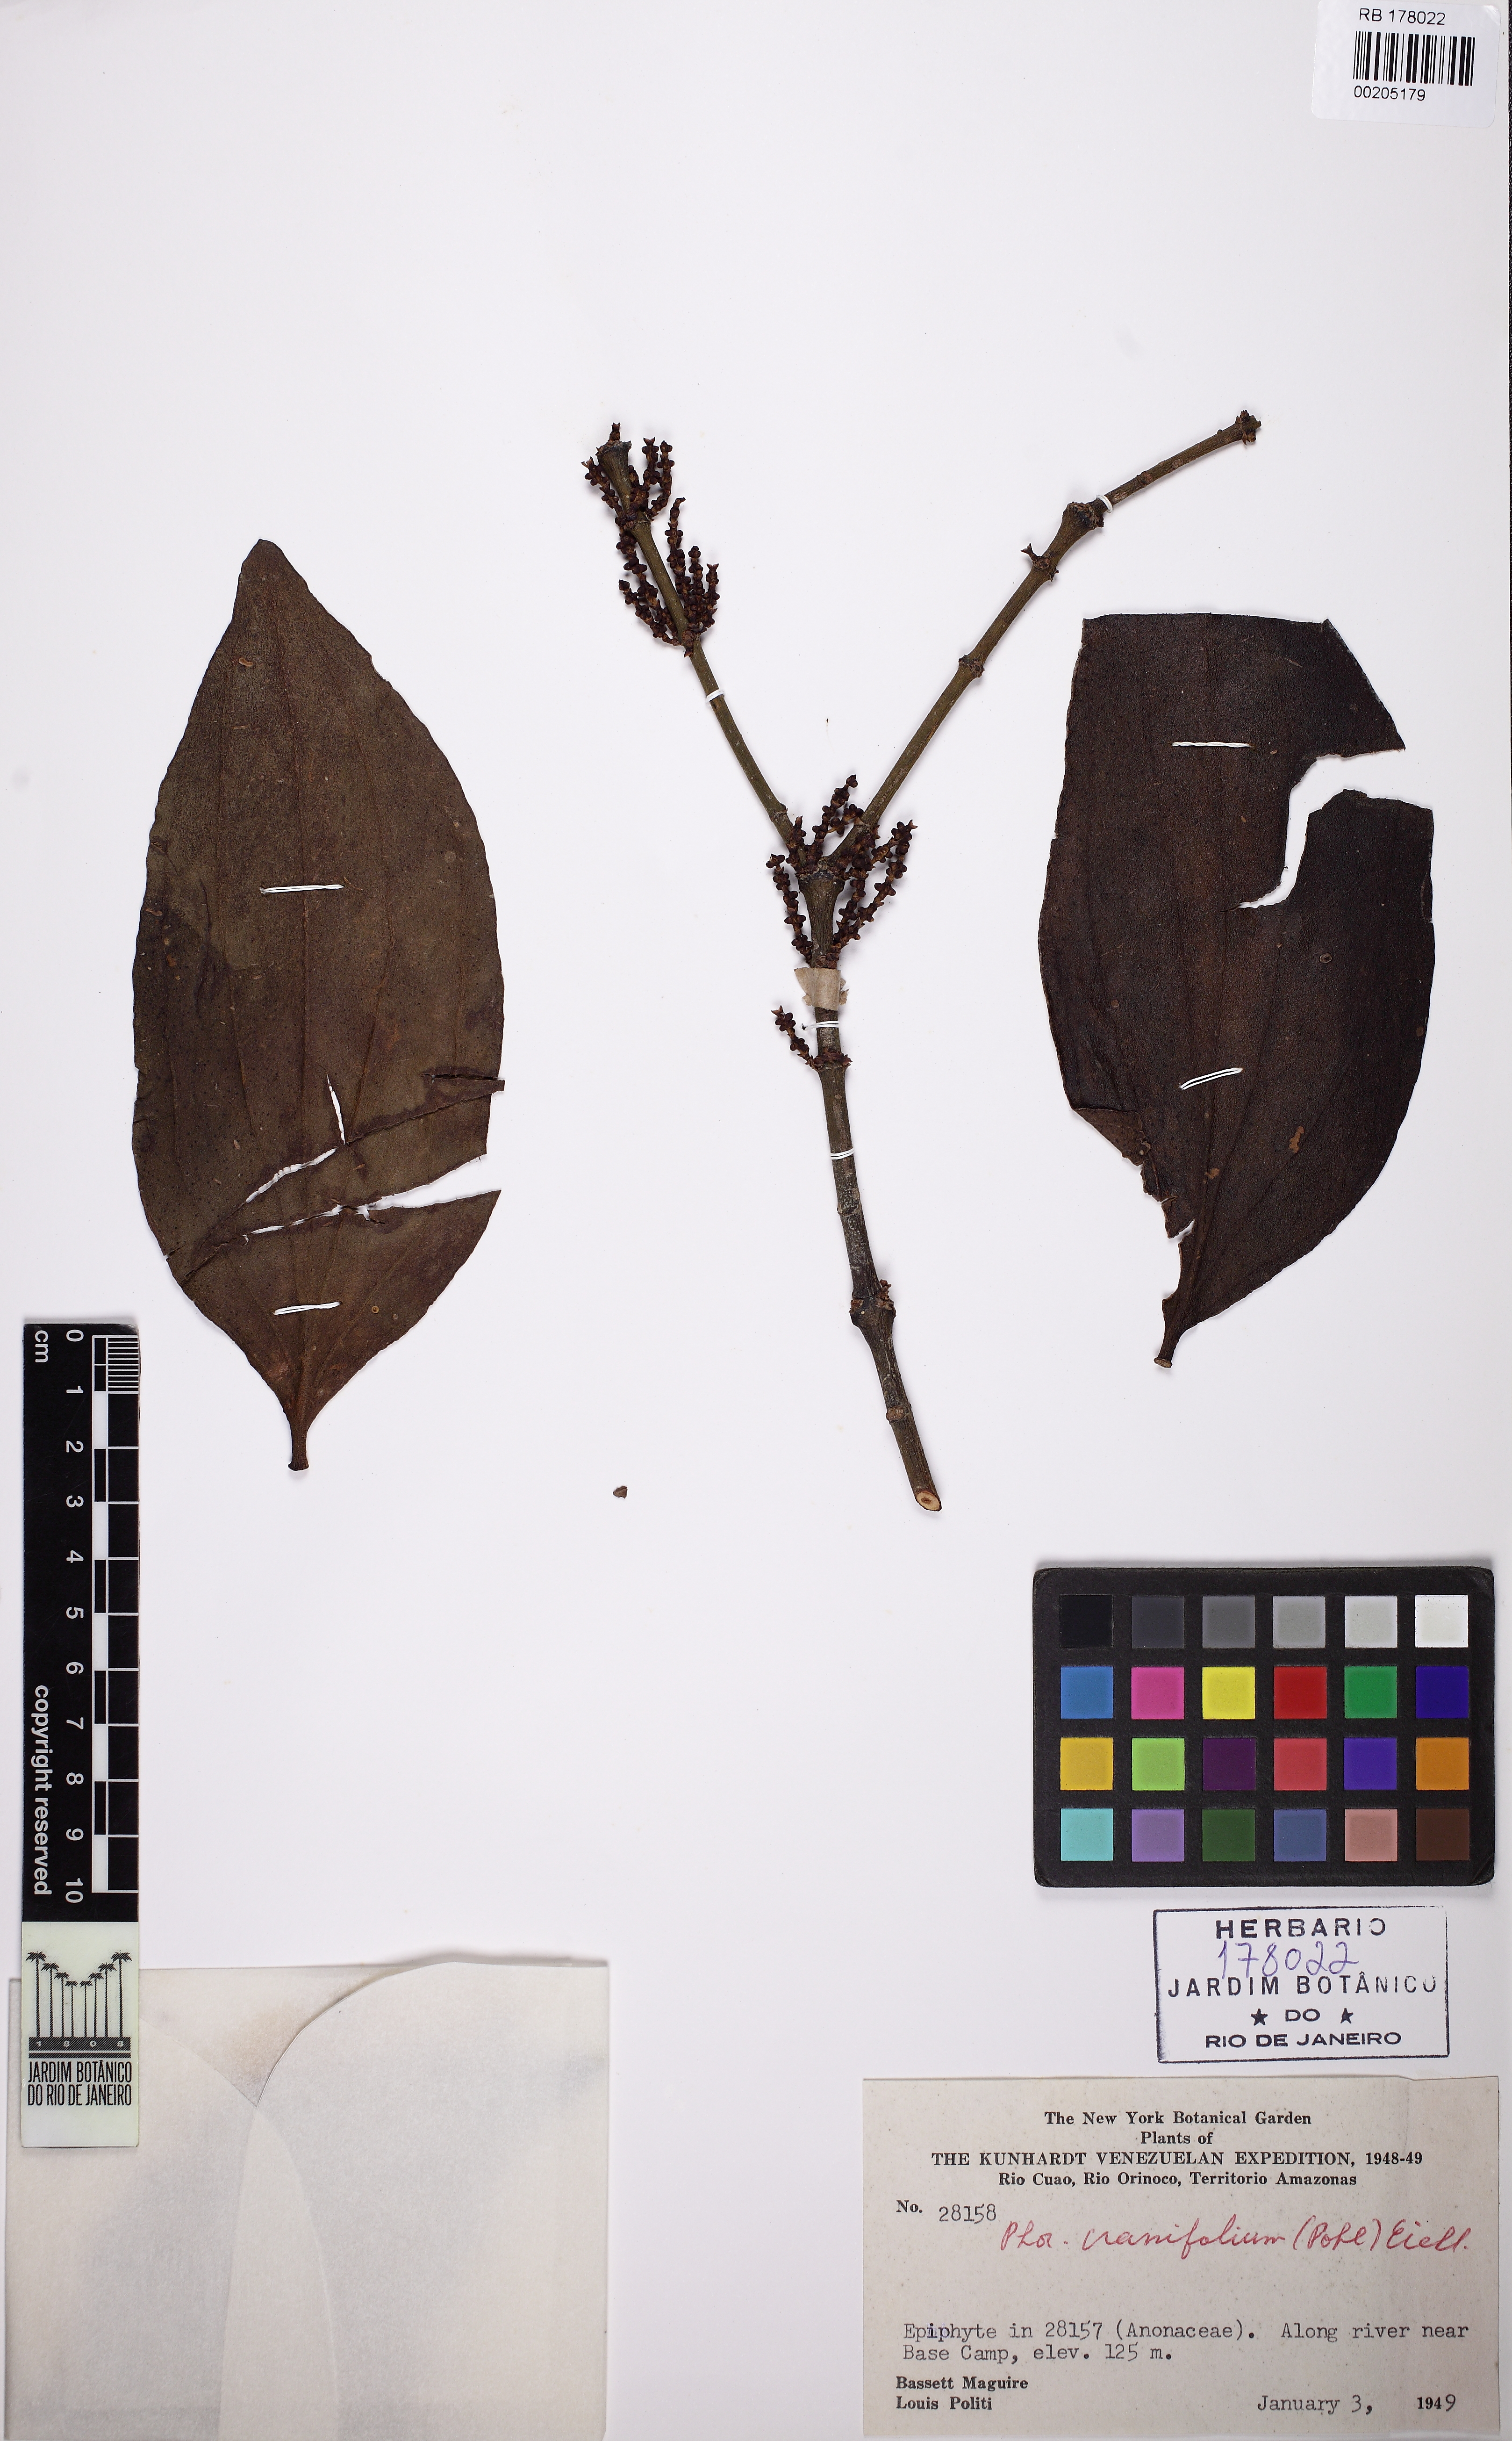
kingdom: Plantae
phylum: Tracheophyta
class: Magnoliopsida
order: Santalales
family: Viscaceae
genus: Phoradendron
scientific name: Phoradendron crassifolium
